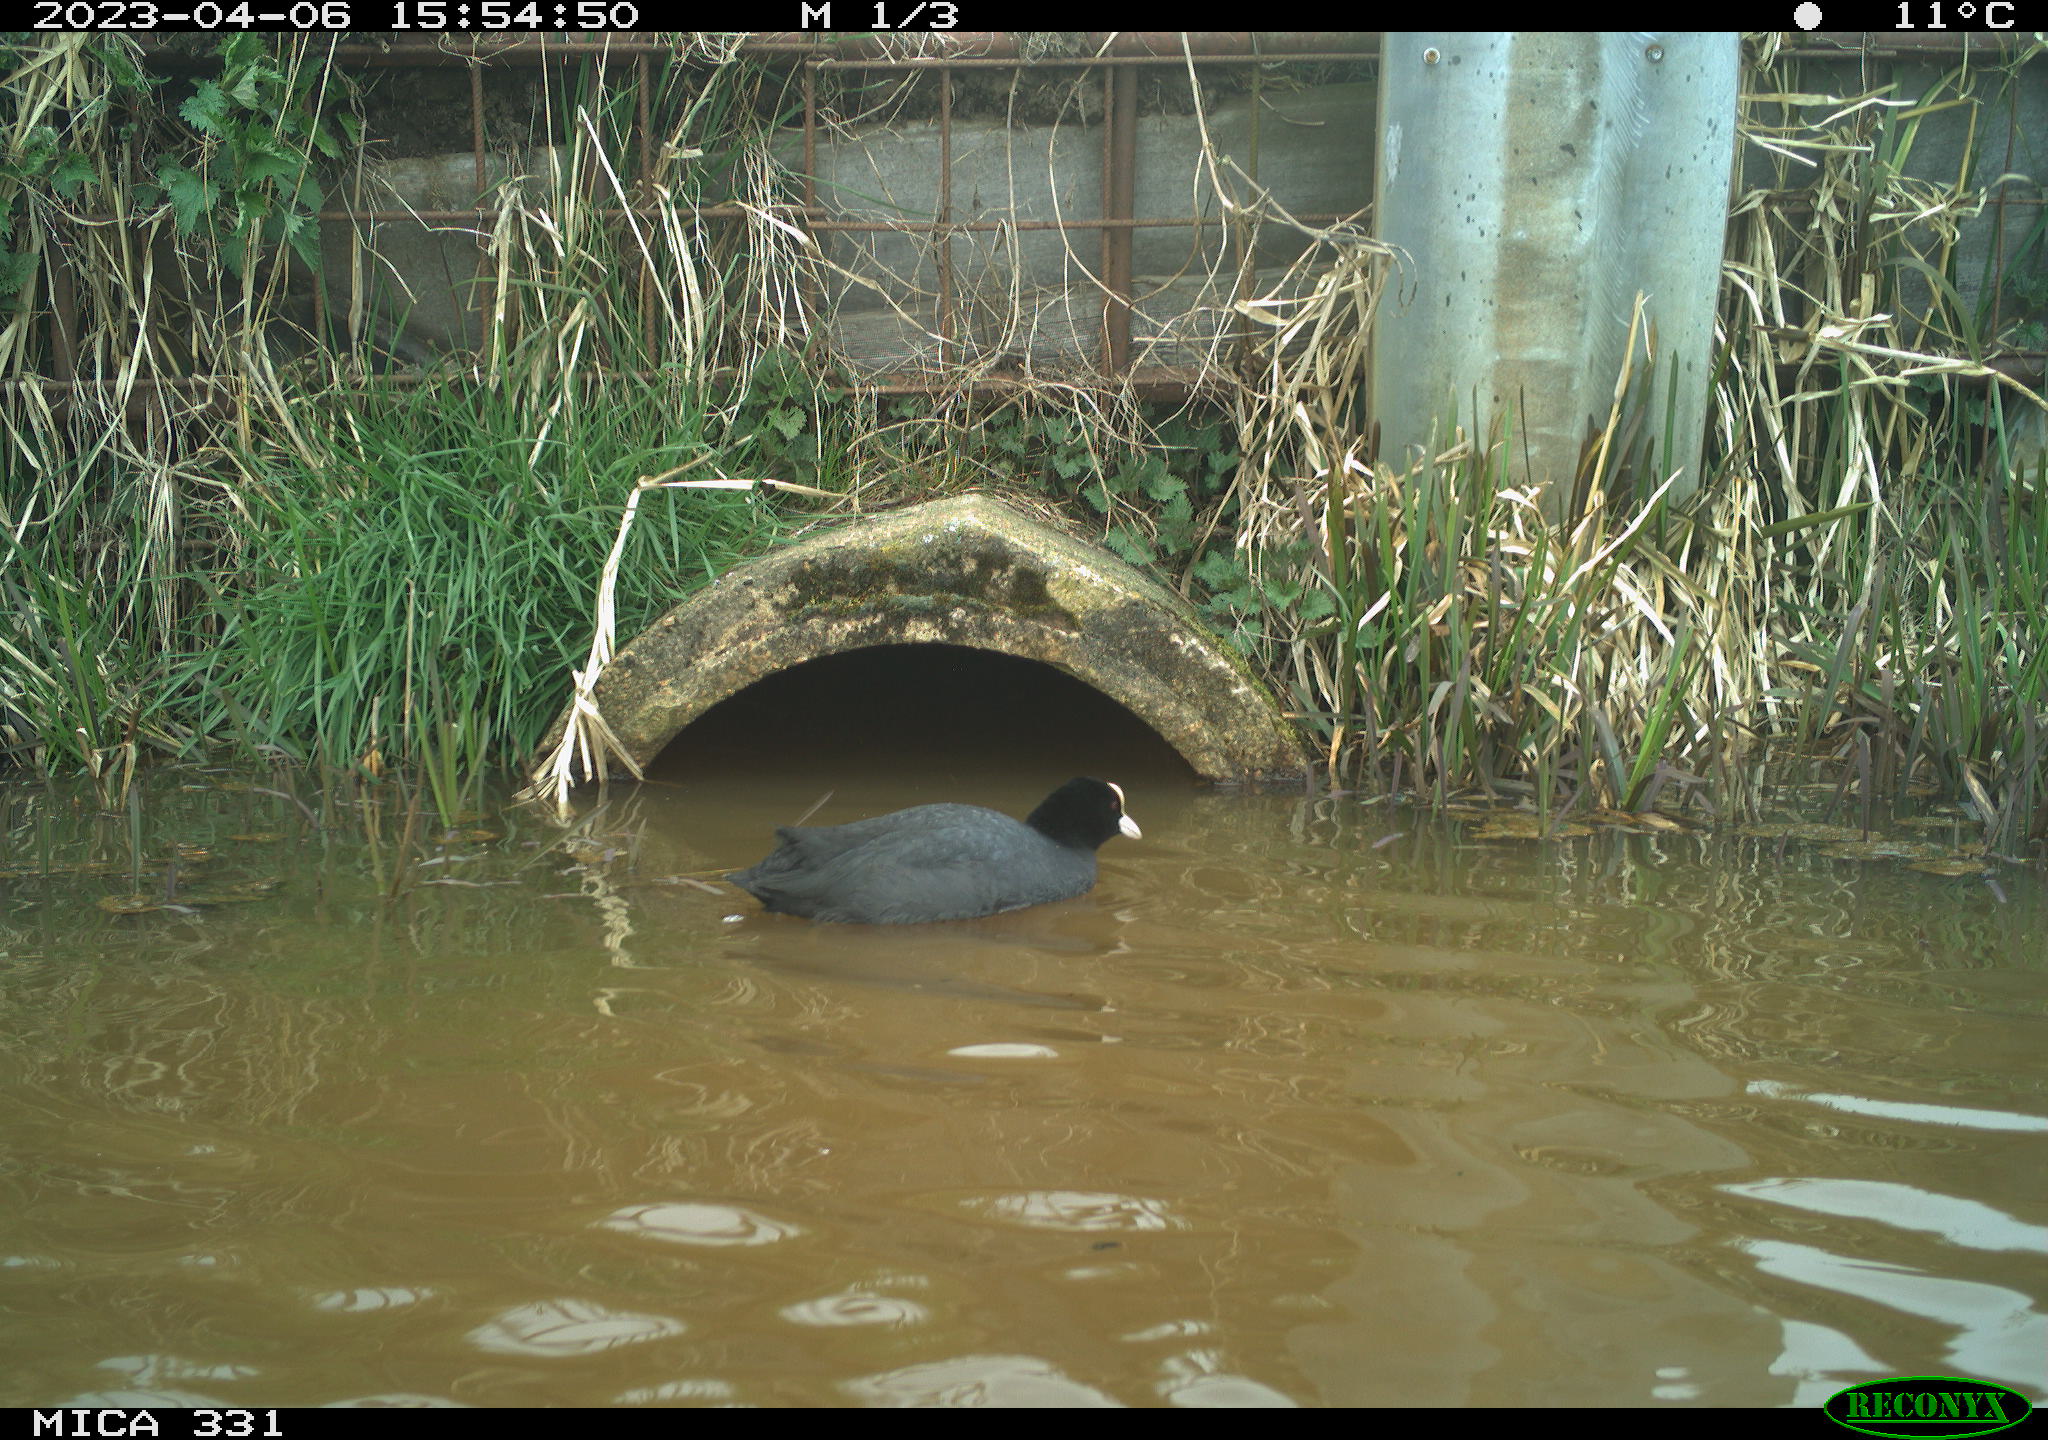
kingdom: Animalia
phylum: Chordata
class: Aves
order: Gruiformes
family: Rallidae
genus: Fulica
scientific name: Fulica atra
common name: Eurasian coot
